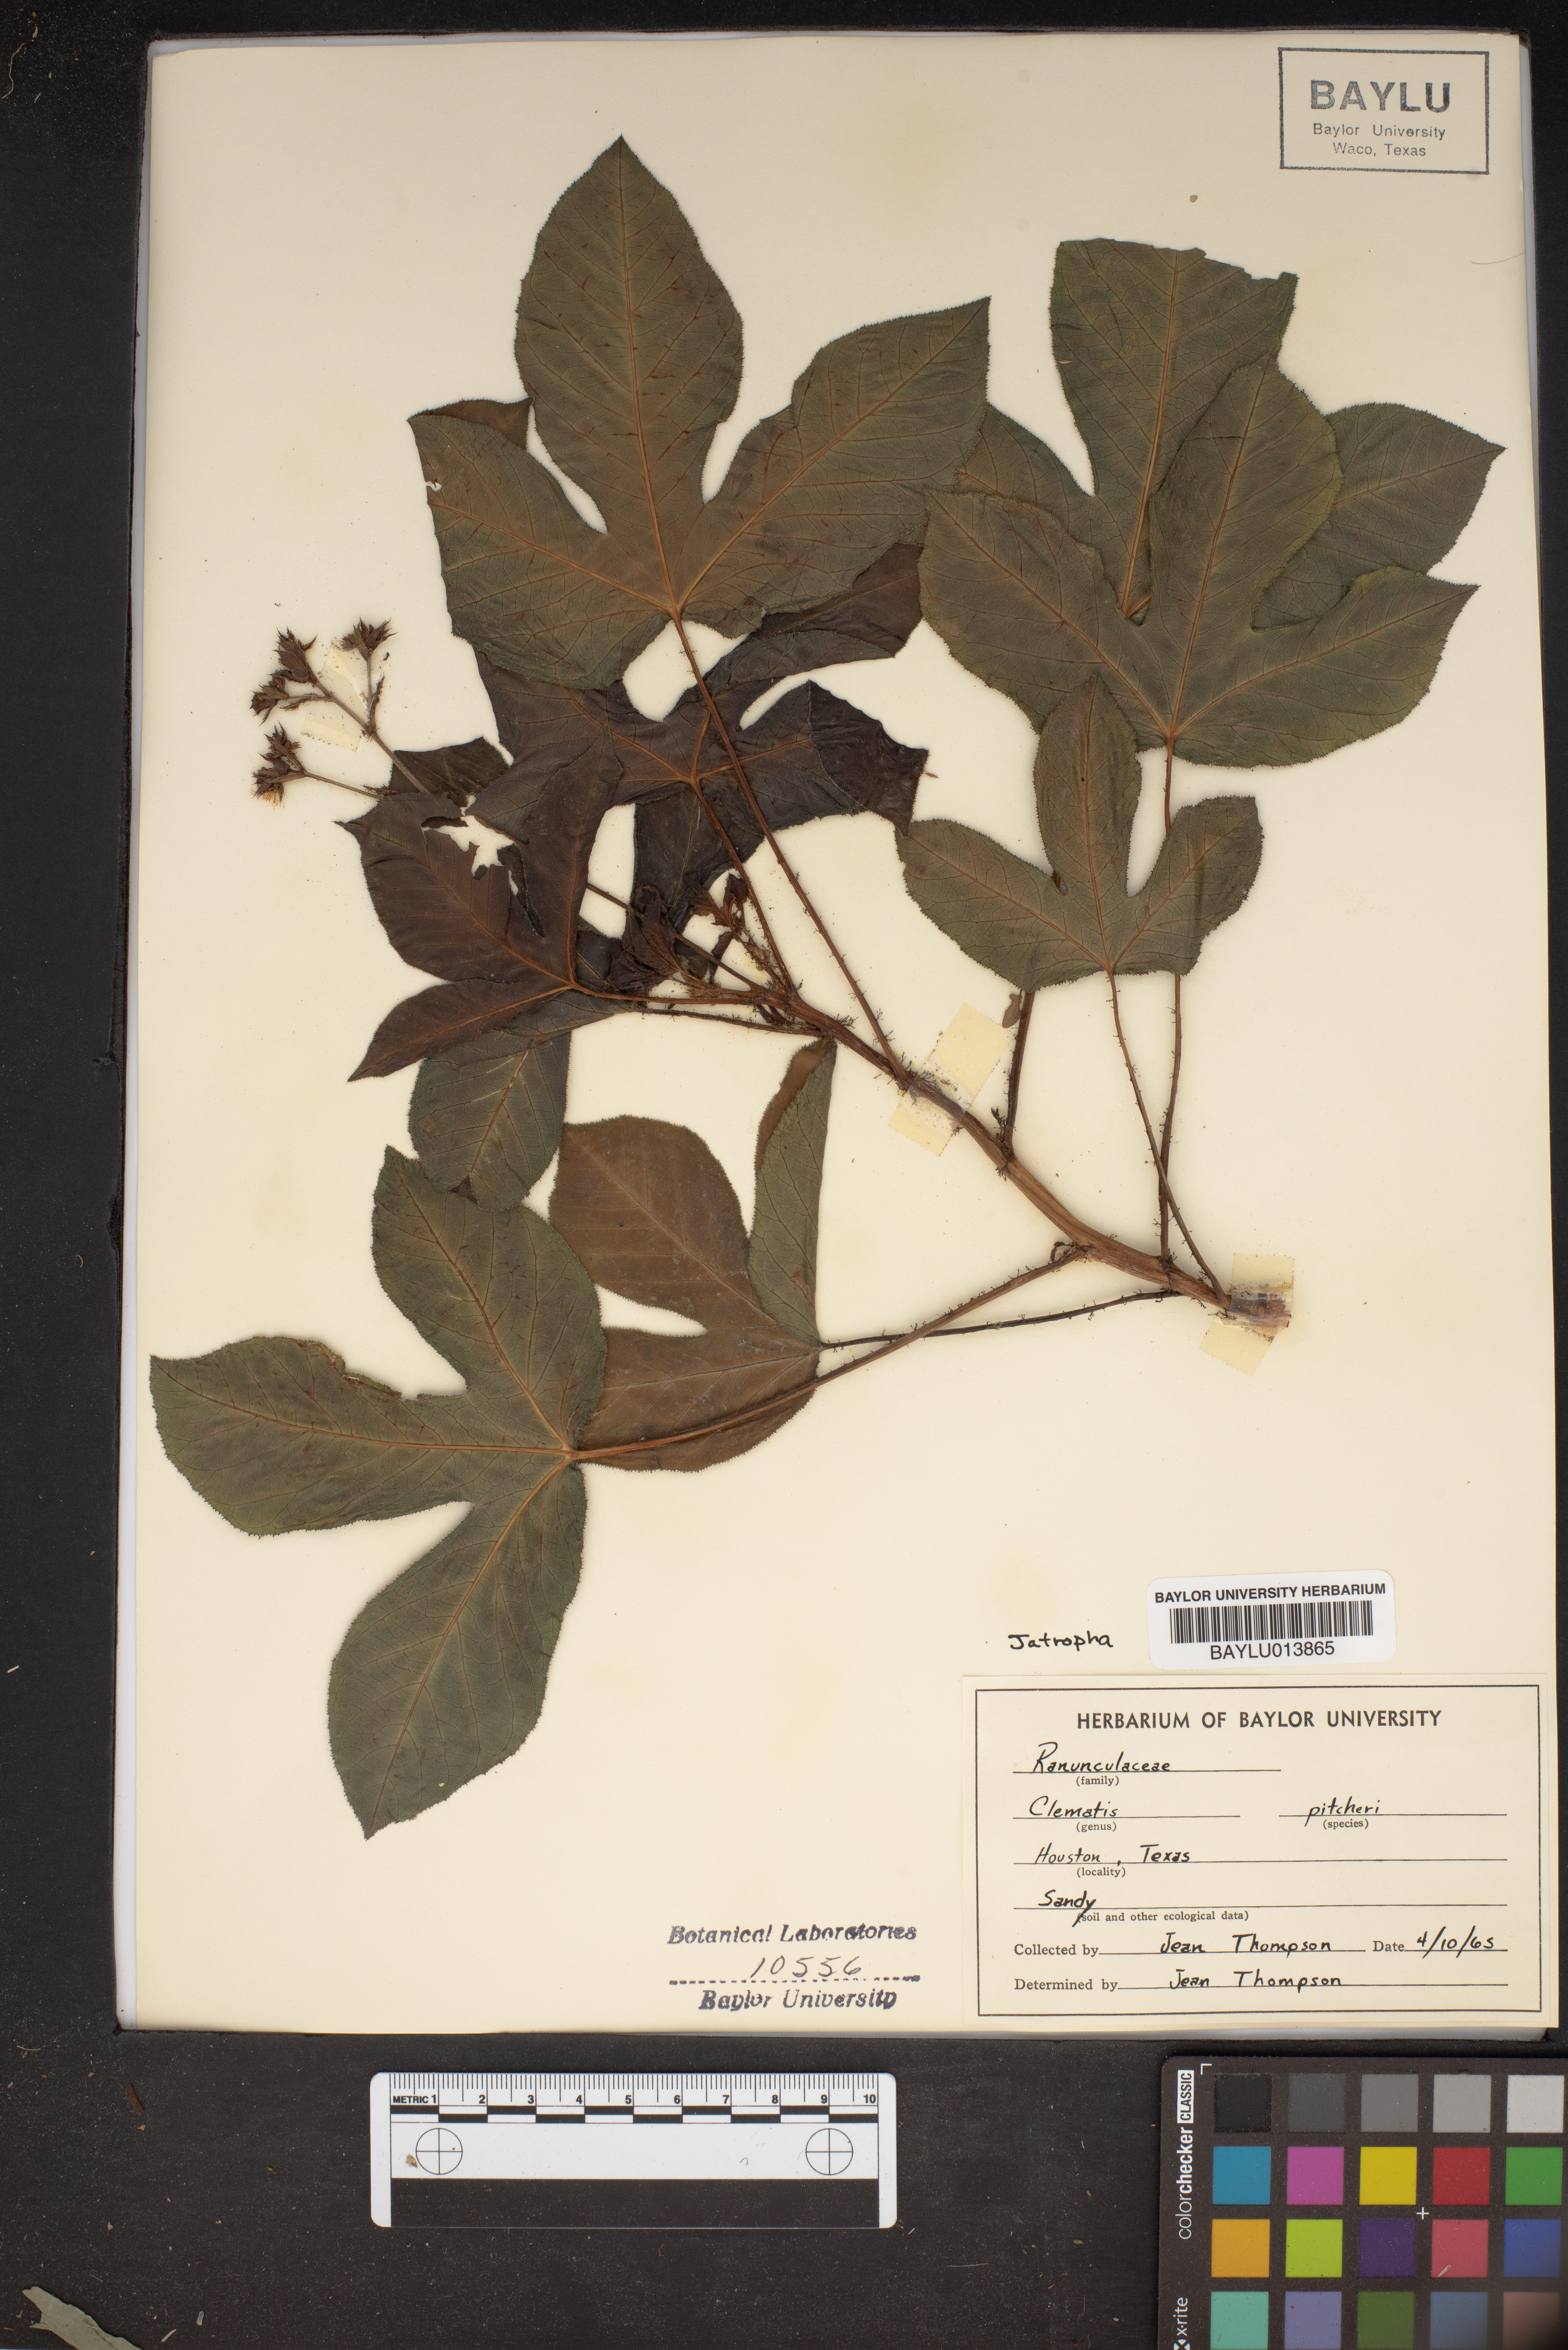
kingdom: Plantae
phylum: Tracheophyta
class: Magnoliopsida
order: Ranunculales
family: Ranunculaceae
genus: Clematis
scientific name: Clematis pitcheri
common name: Bellflower clematis
